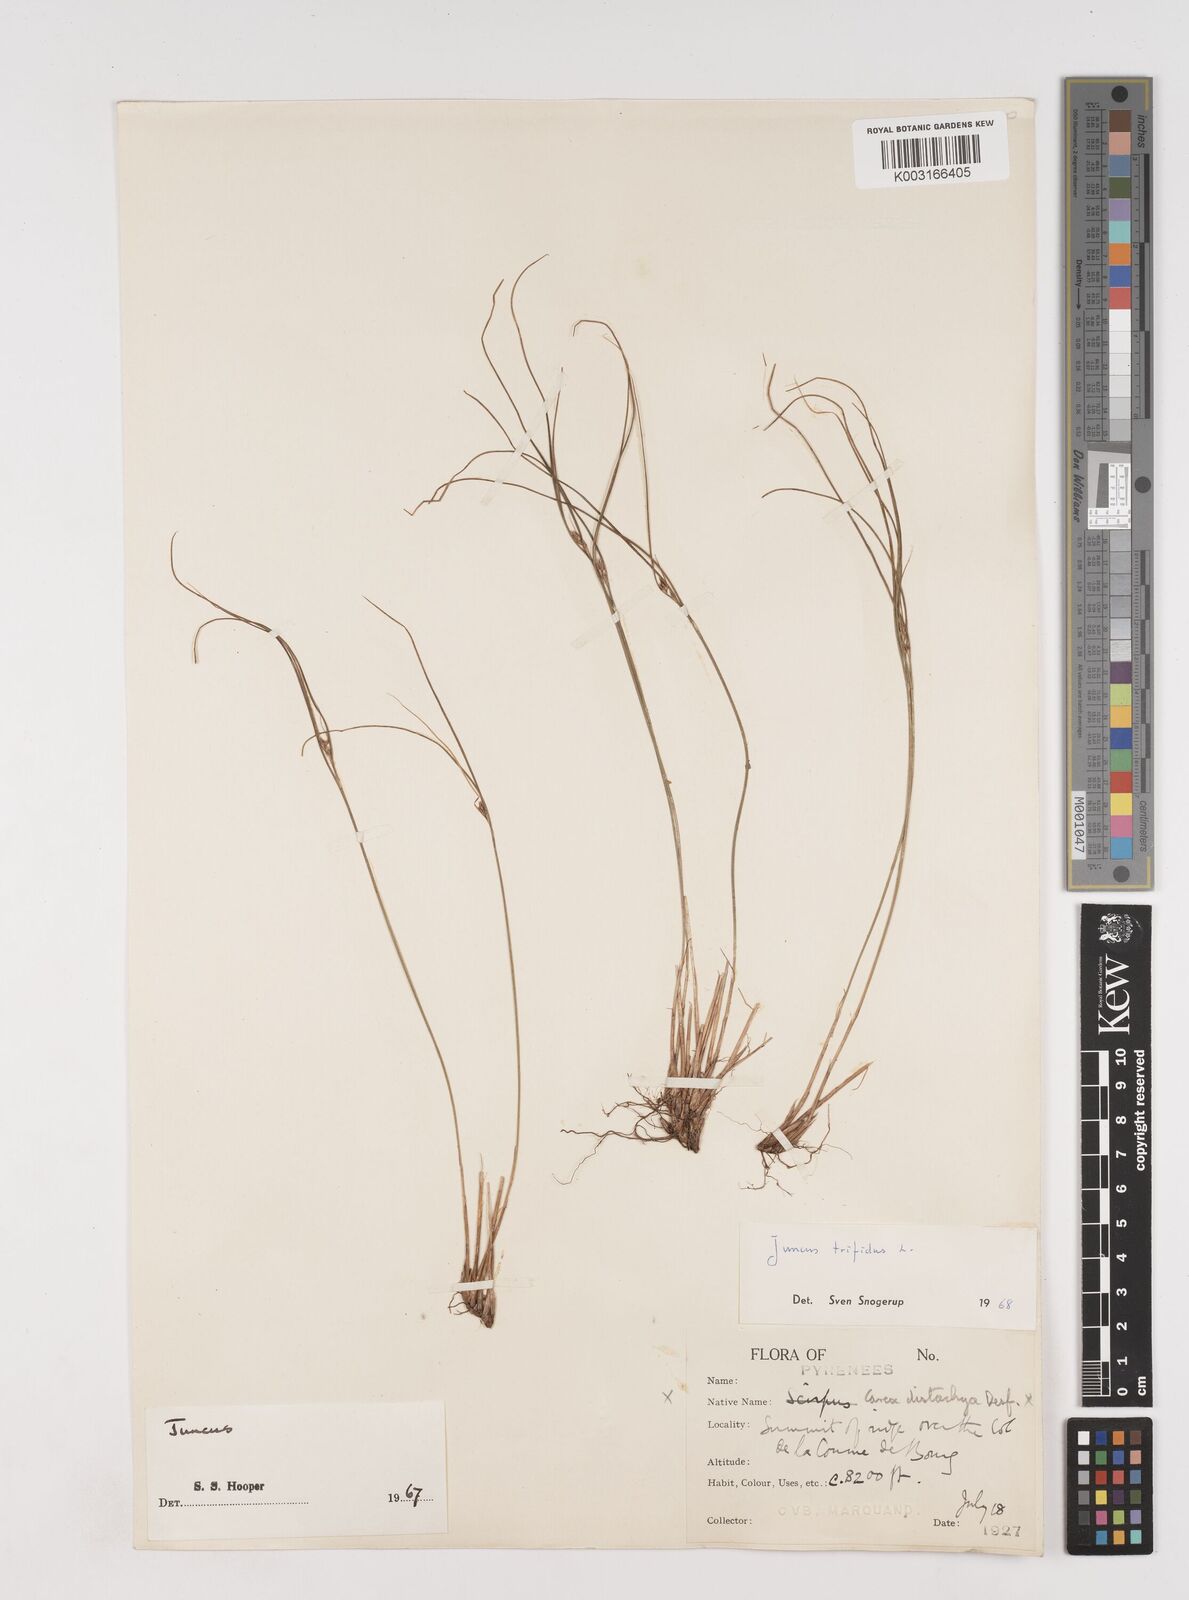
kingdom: Plantae
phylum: Tracheophyta
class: Liliopsida
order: Poales
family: Juncaceae
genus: Oreojuncus
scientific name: Oreojuncus trifidus
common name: Highland rush
